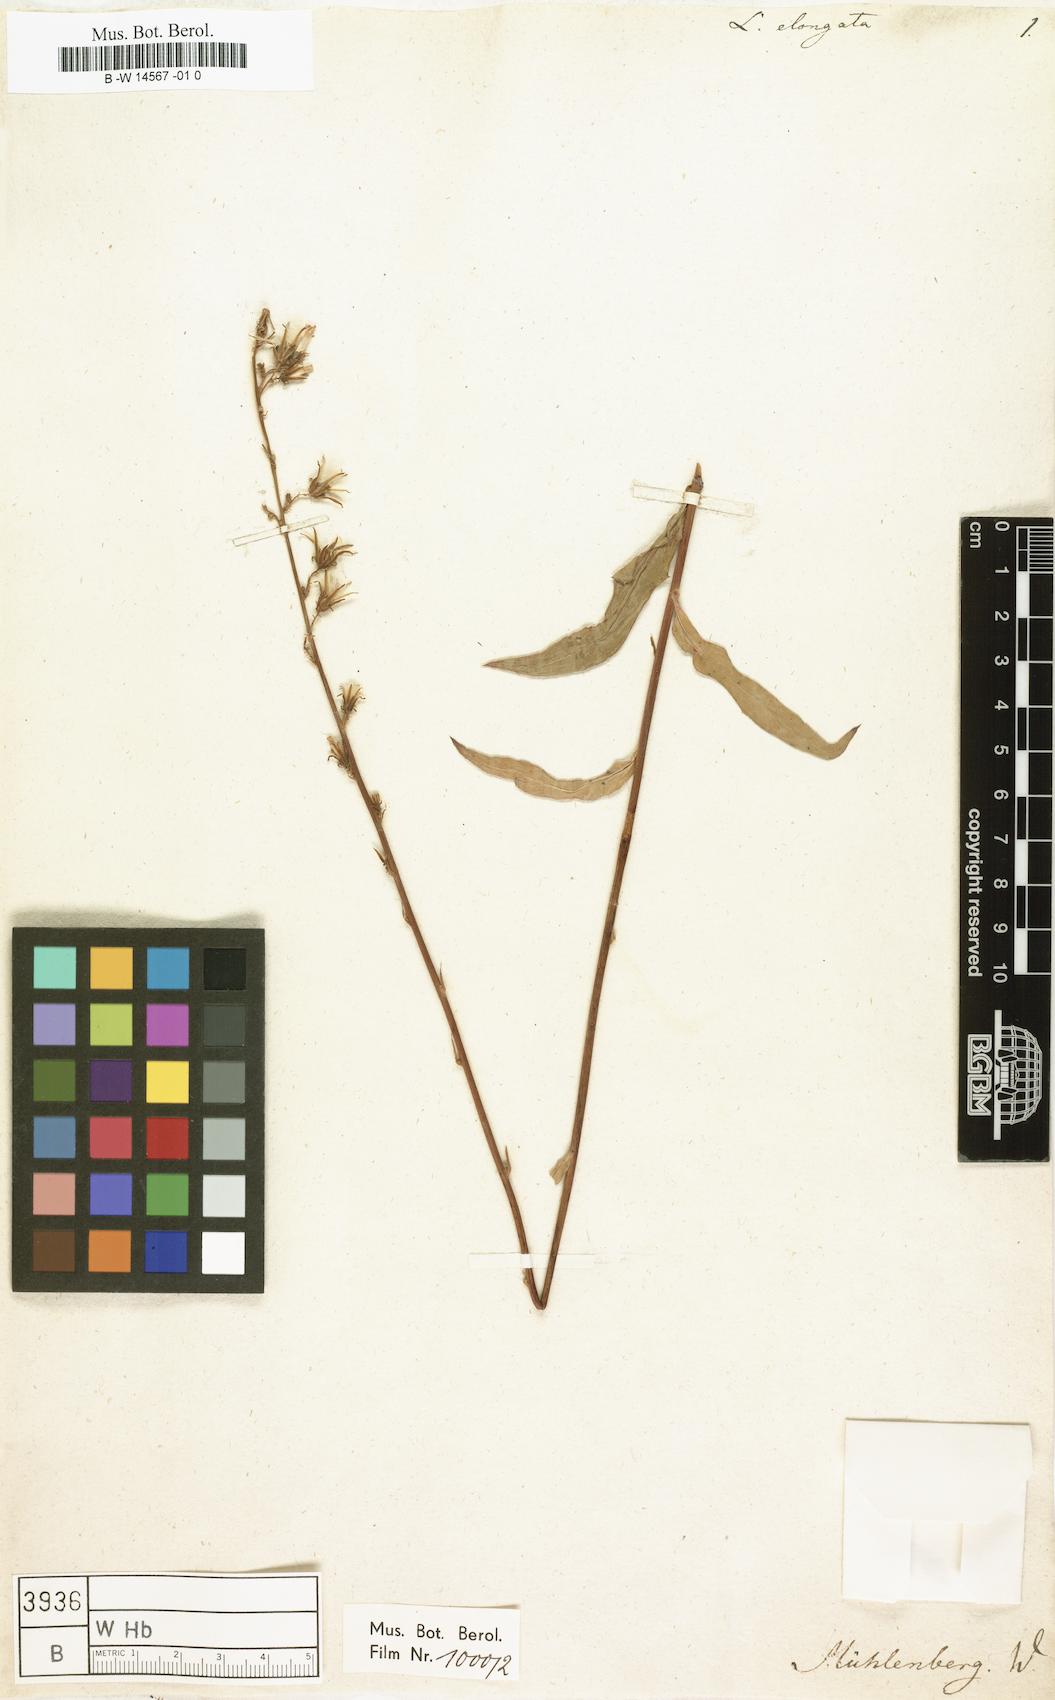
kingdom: Plantae
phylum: Tracheophyta
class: Magnoliopsida
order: Asterales
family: Asteraceae
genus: Lactuca
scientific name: Lactuca canadensis
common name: Canada lettuce
